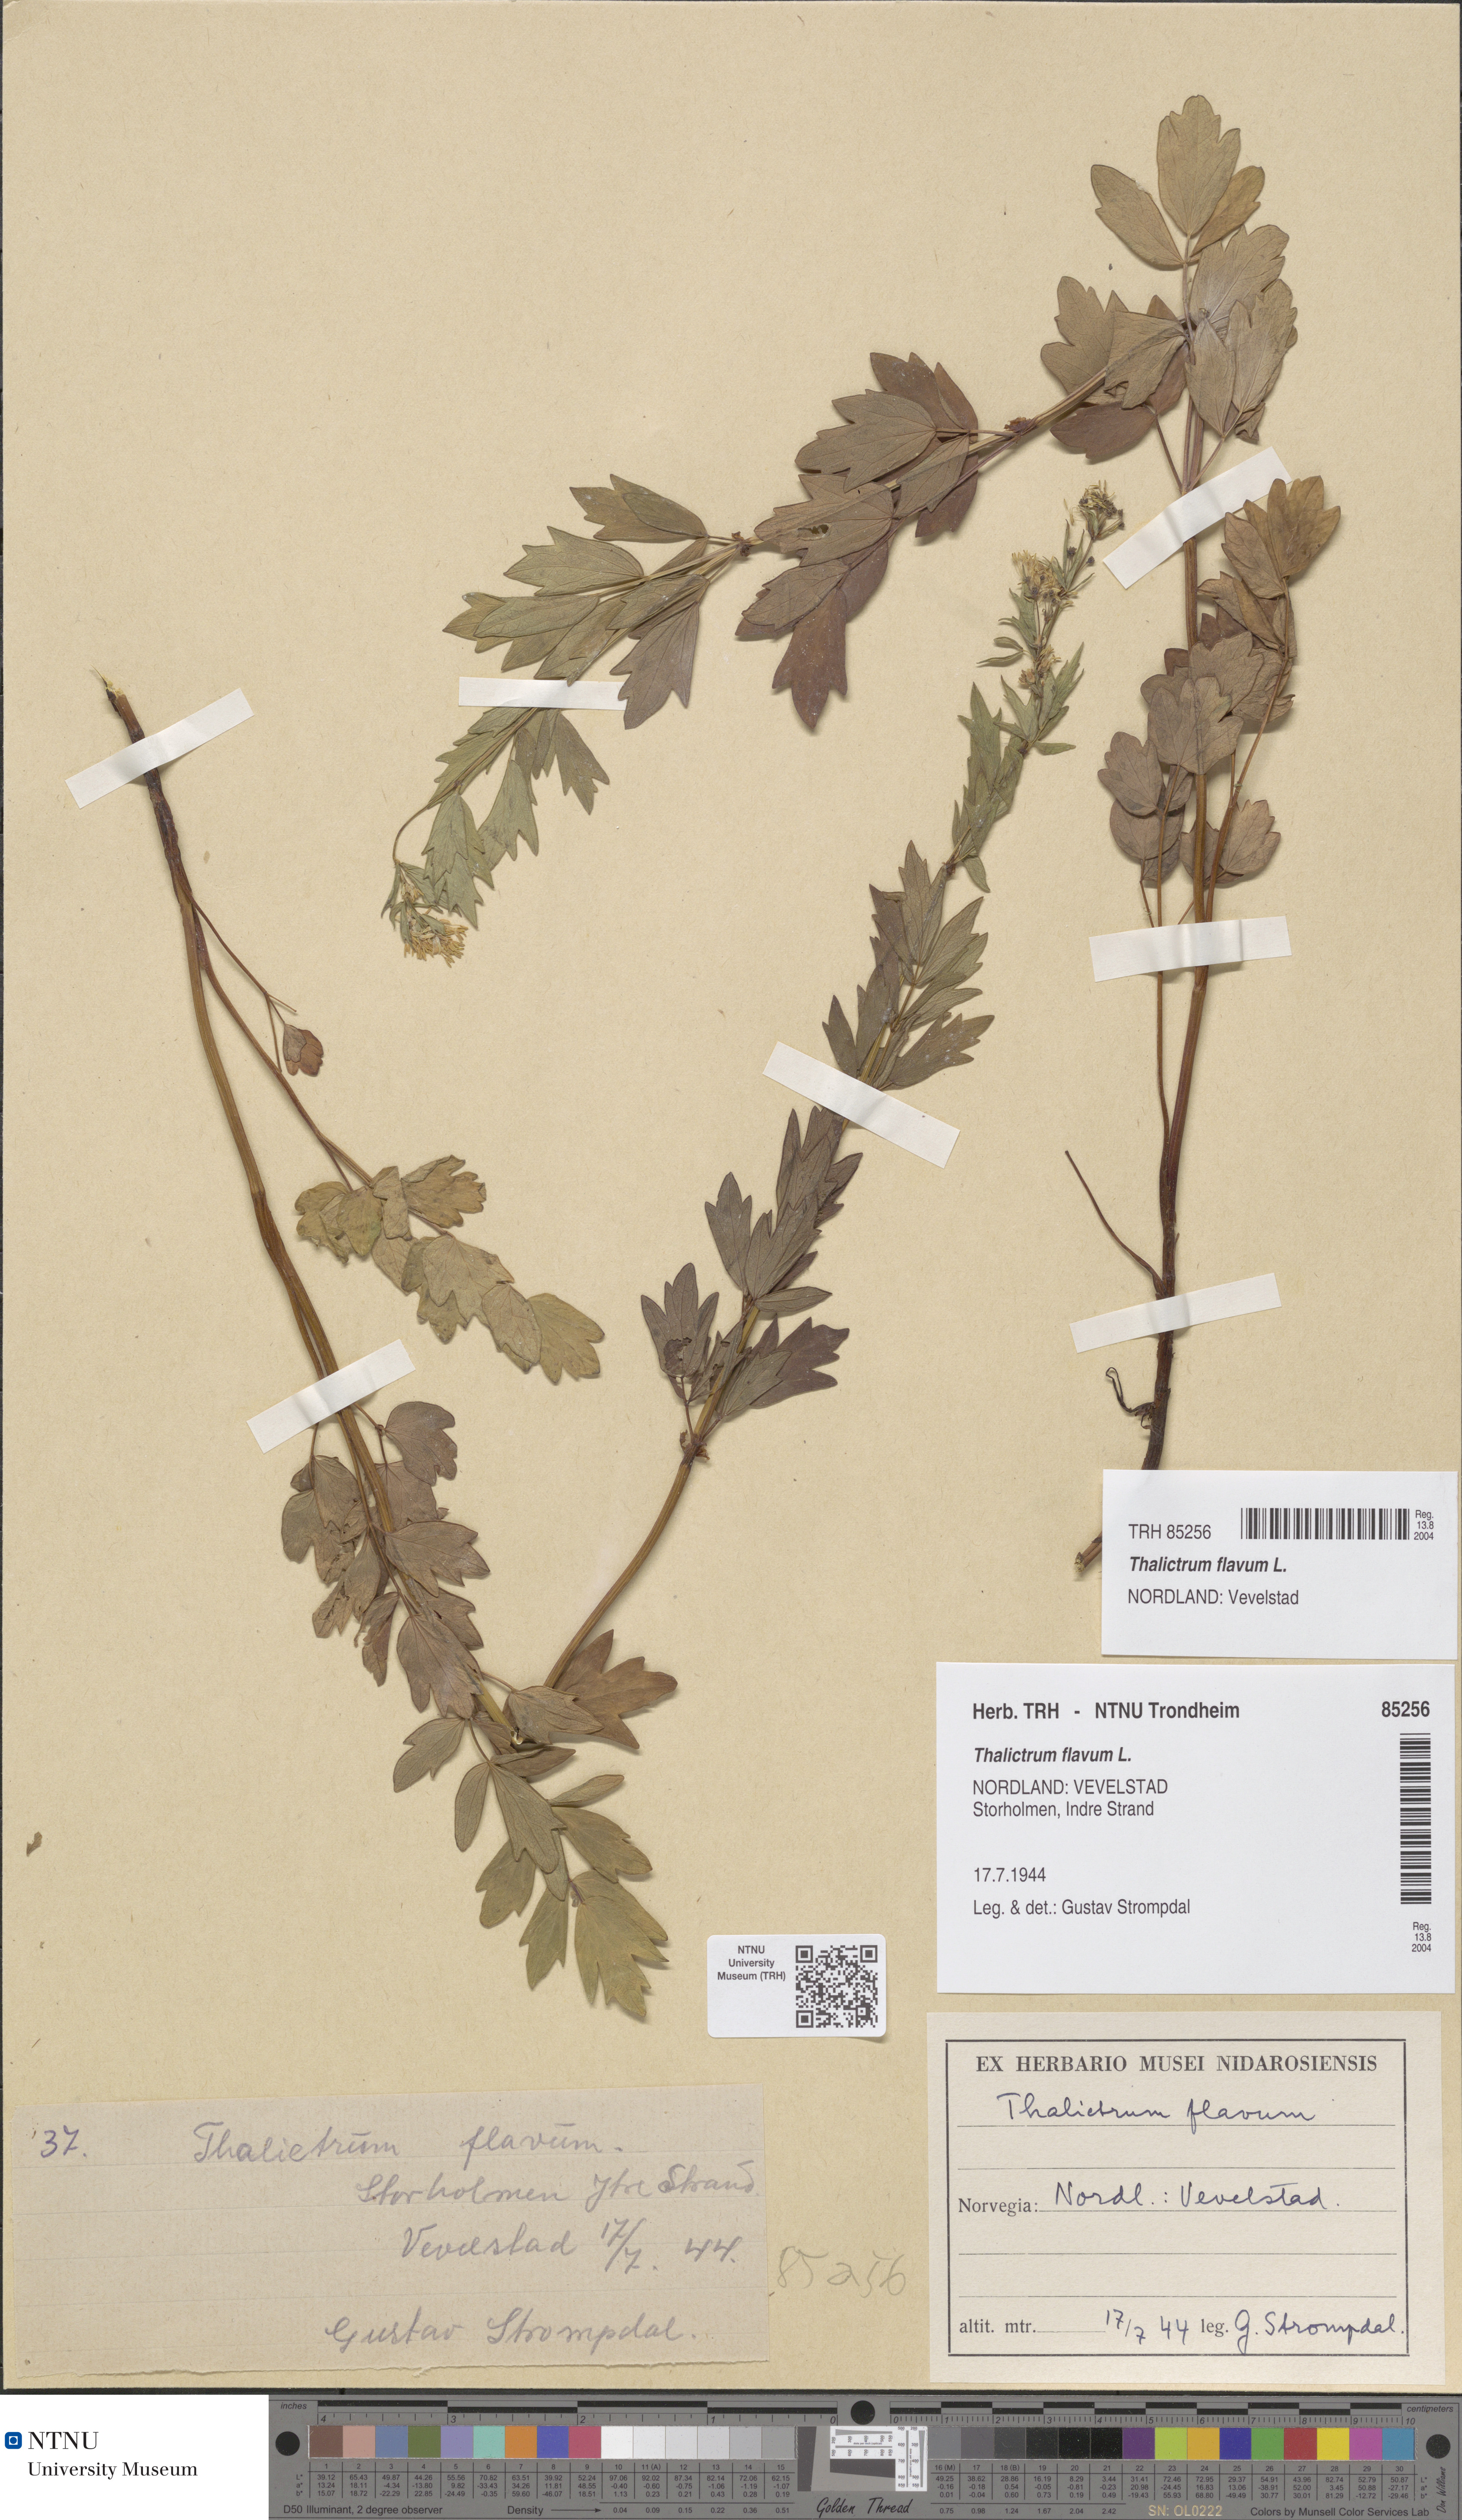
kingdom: Plantae
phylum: Tracheophyta
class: Magnoliopsida
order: Ranunculales
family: Ranunculaceae
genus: Thalictrum
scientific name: Thalictrum flavum
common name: Common meadow-rue
